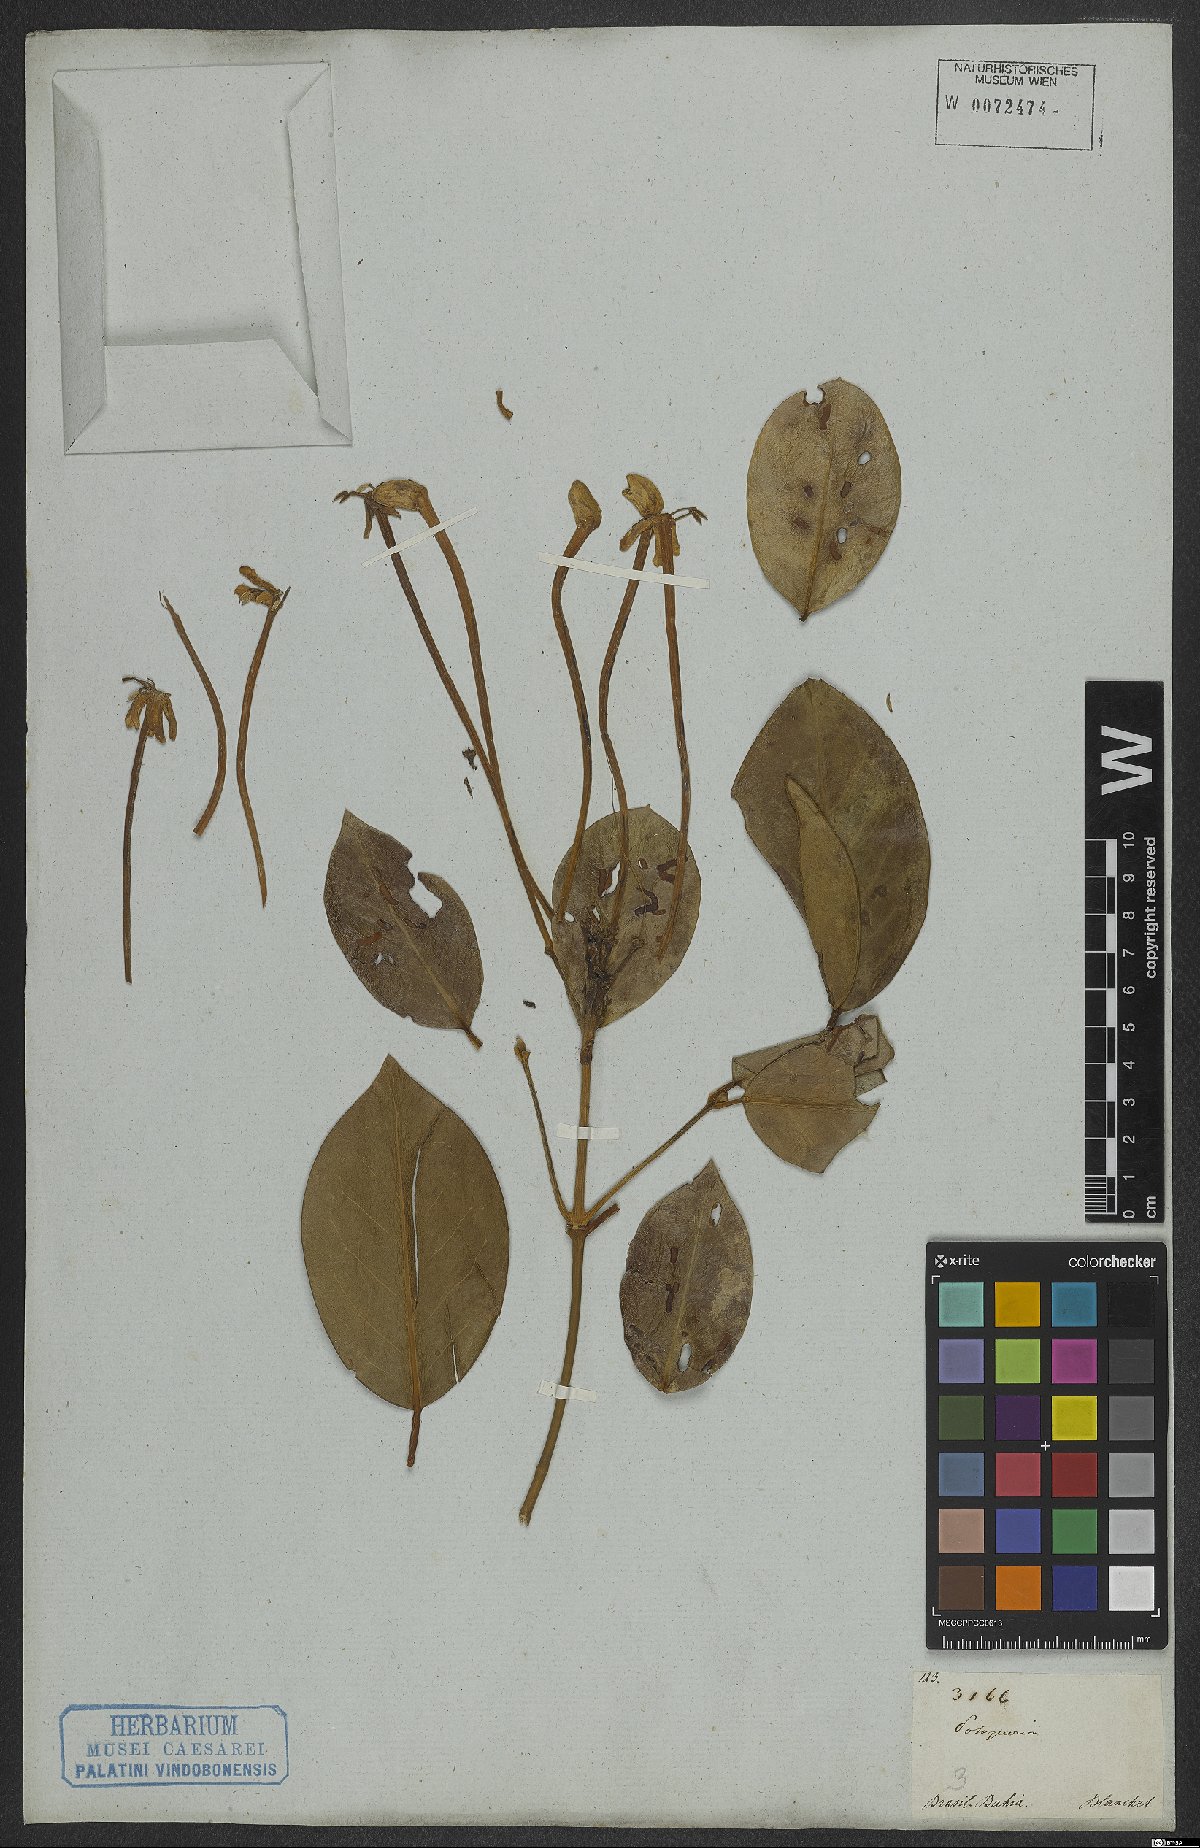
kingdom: Plantae
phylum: Tracheophyta
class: Magnoliopsida
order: Gentianales
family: Rubiaceae
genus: Posoqueria
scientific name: Posoqueria
